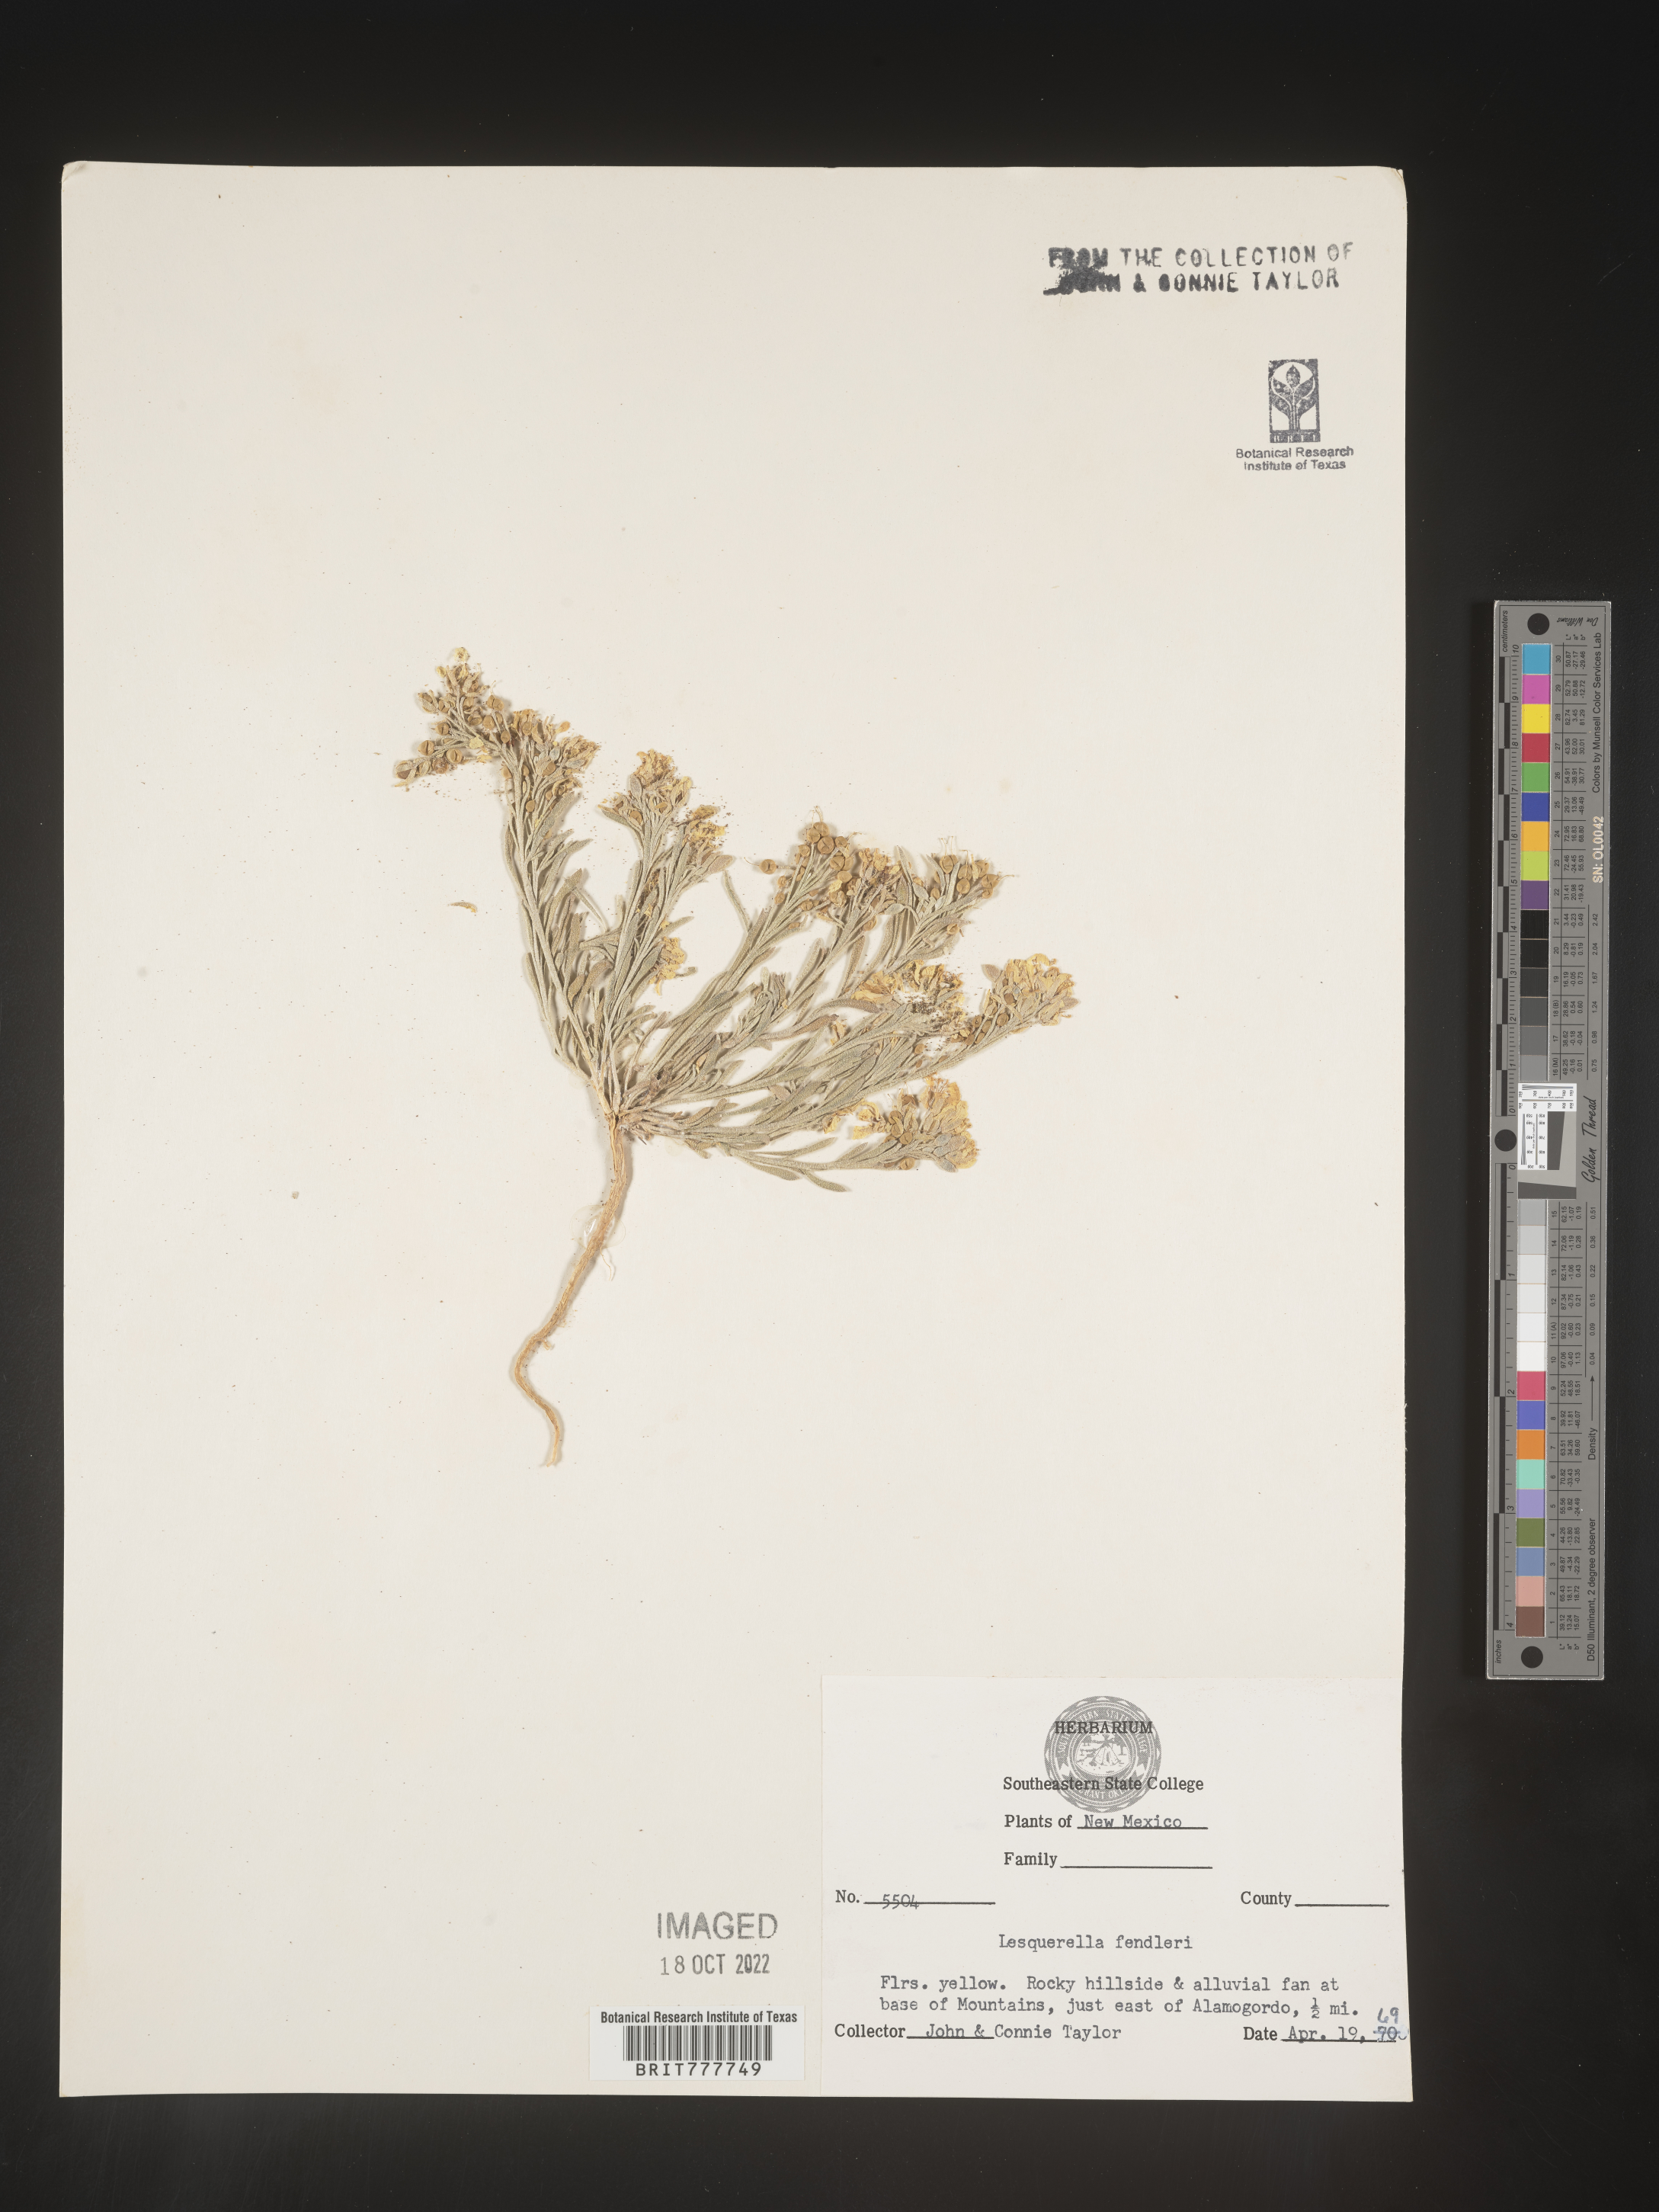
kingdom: Plantae
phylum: Tracheophyta
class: Magnoliopsida
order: Brassicales
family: Brassicaceae
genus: Physaria
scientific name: Physaria fendleri
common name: Fendler's bladderpod
